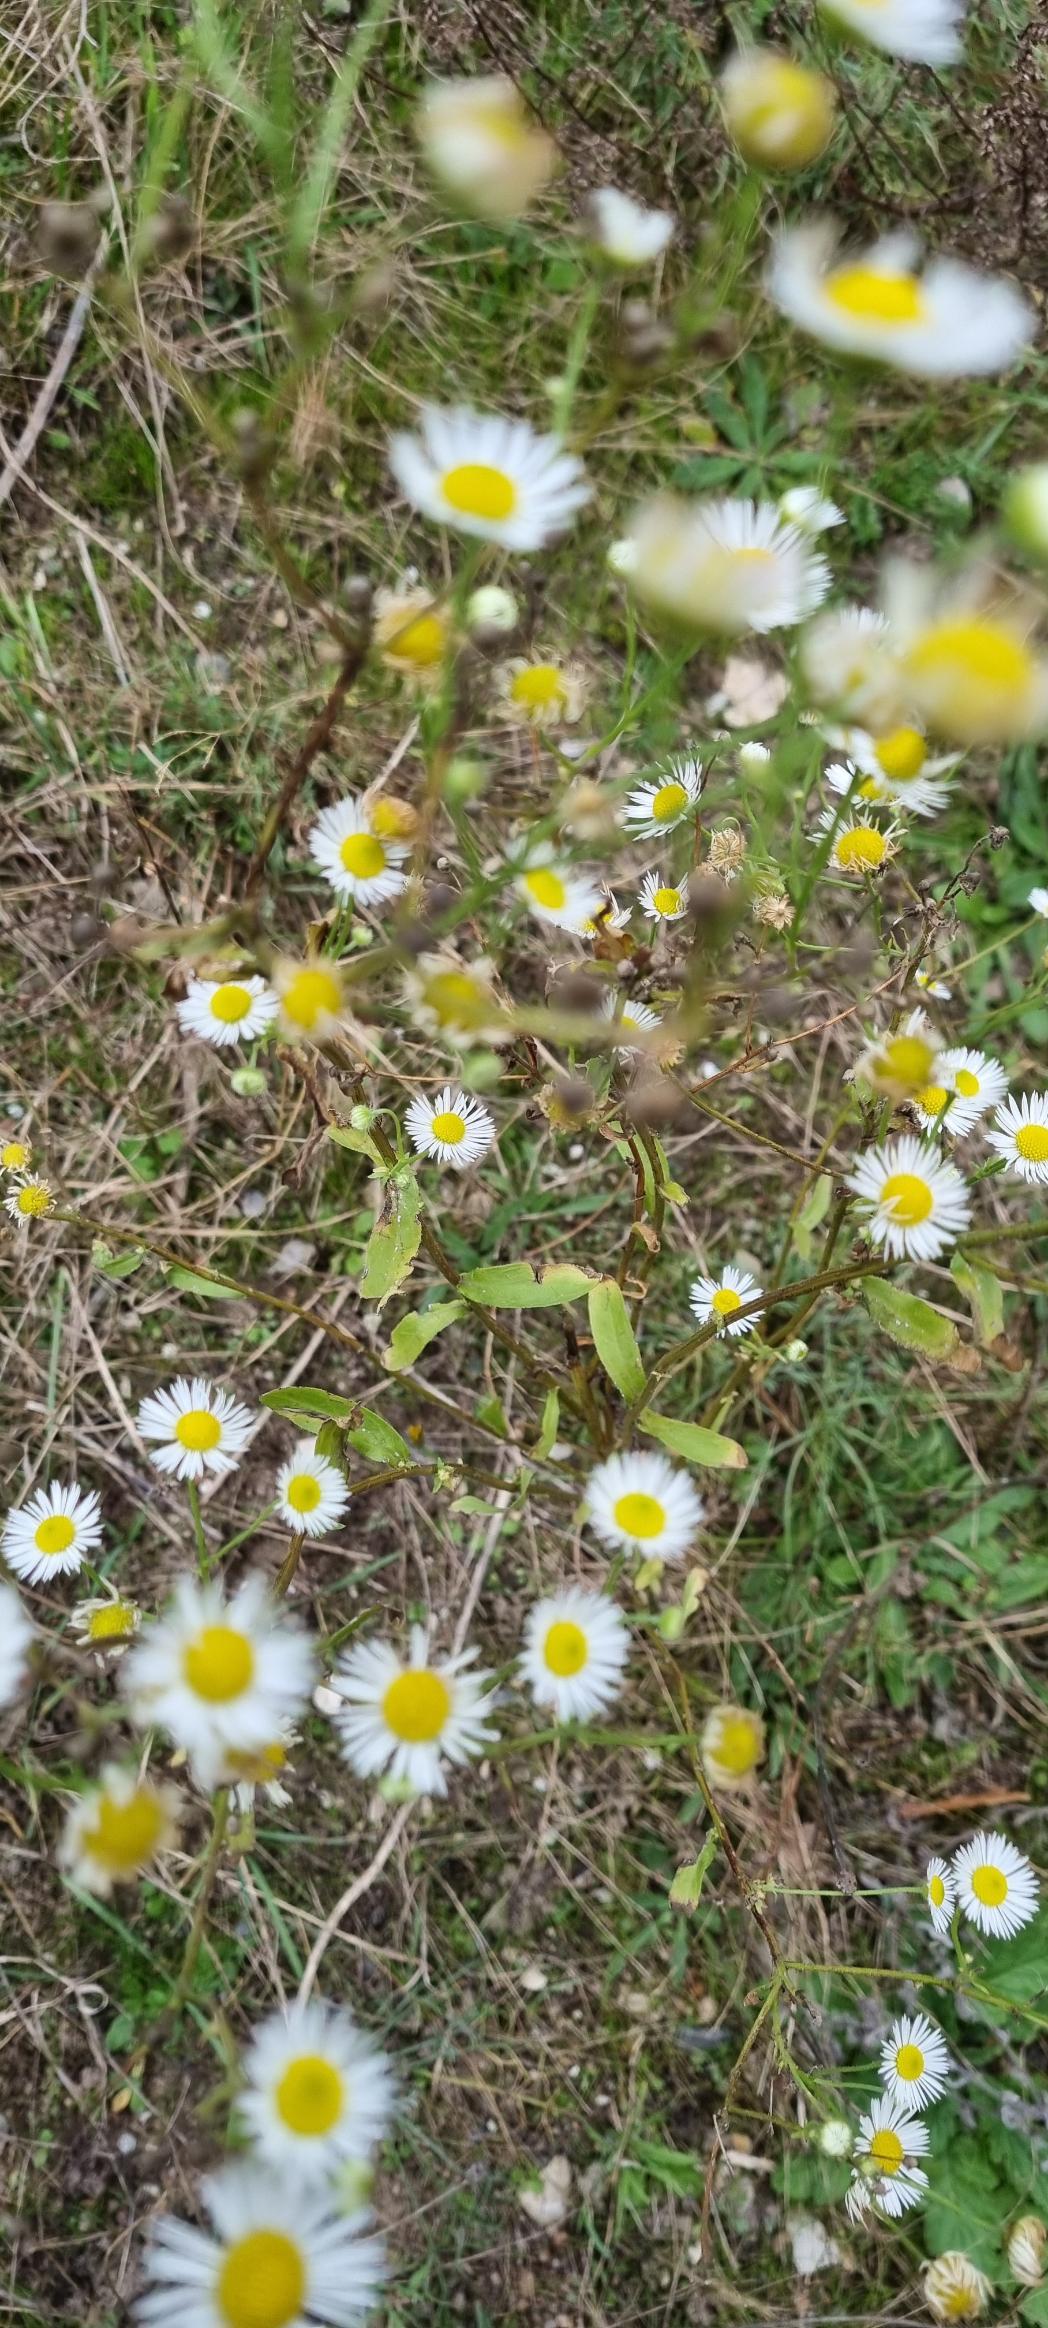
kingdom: Plantae
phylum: Tracheophyta
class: Magnoliopsida
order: Asterales
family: Asteraceae
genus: Erigeron
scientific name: Erigeron annuus
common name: Smalstråle
